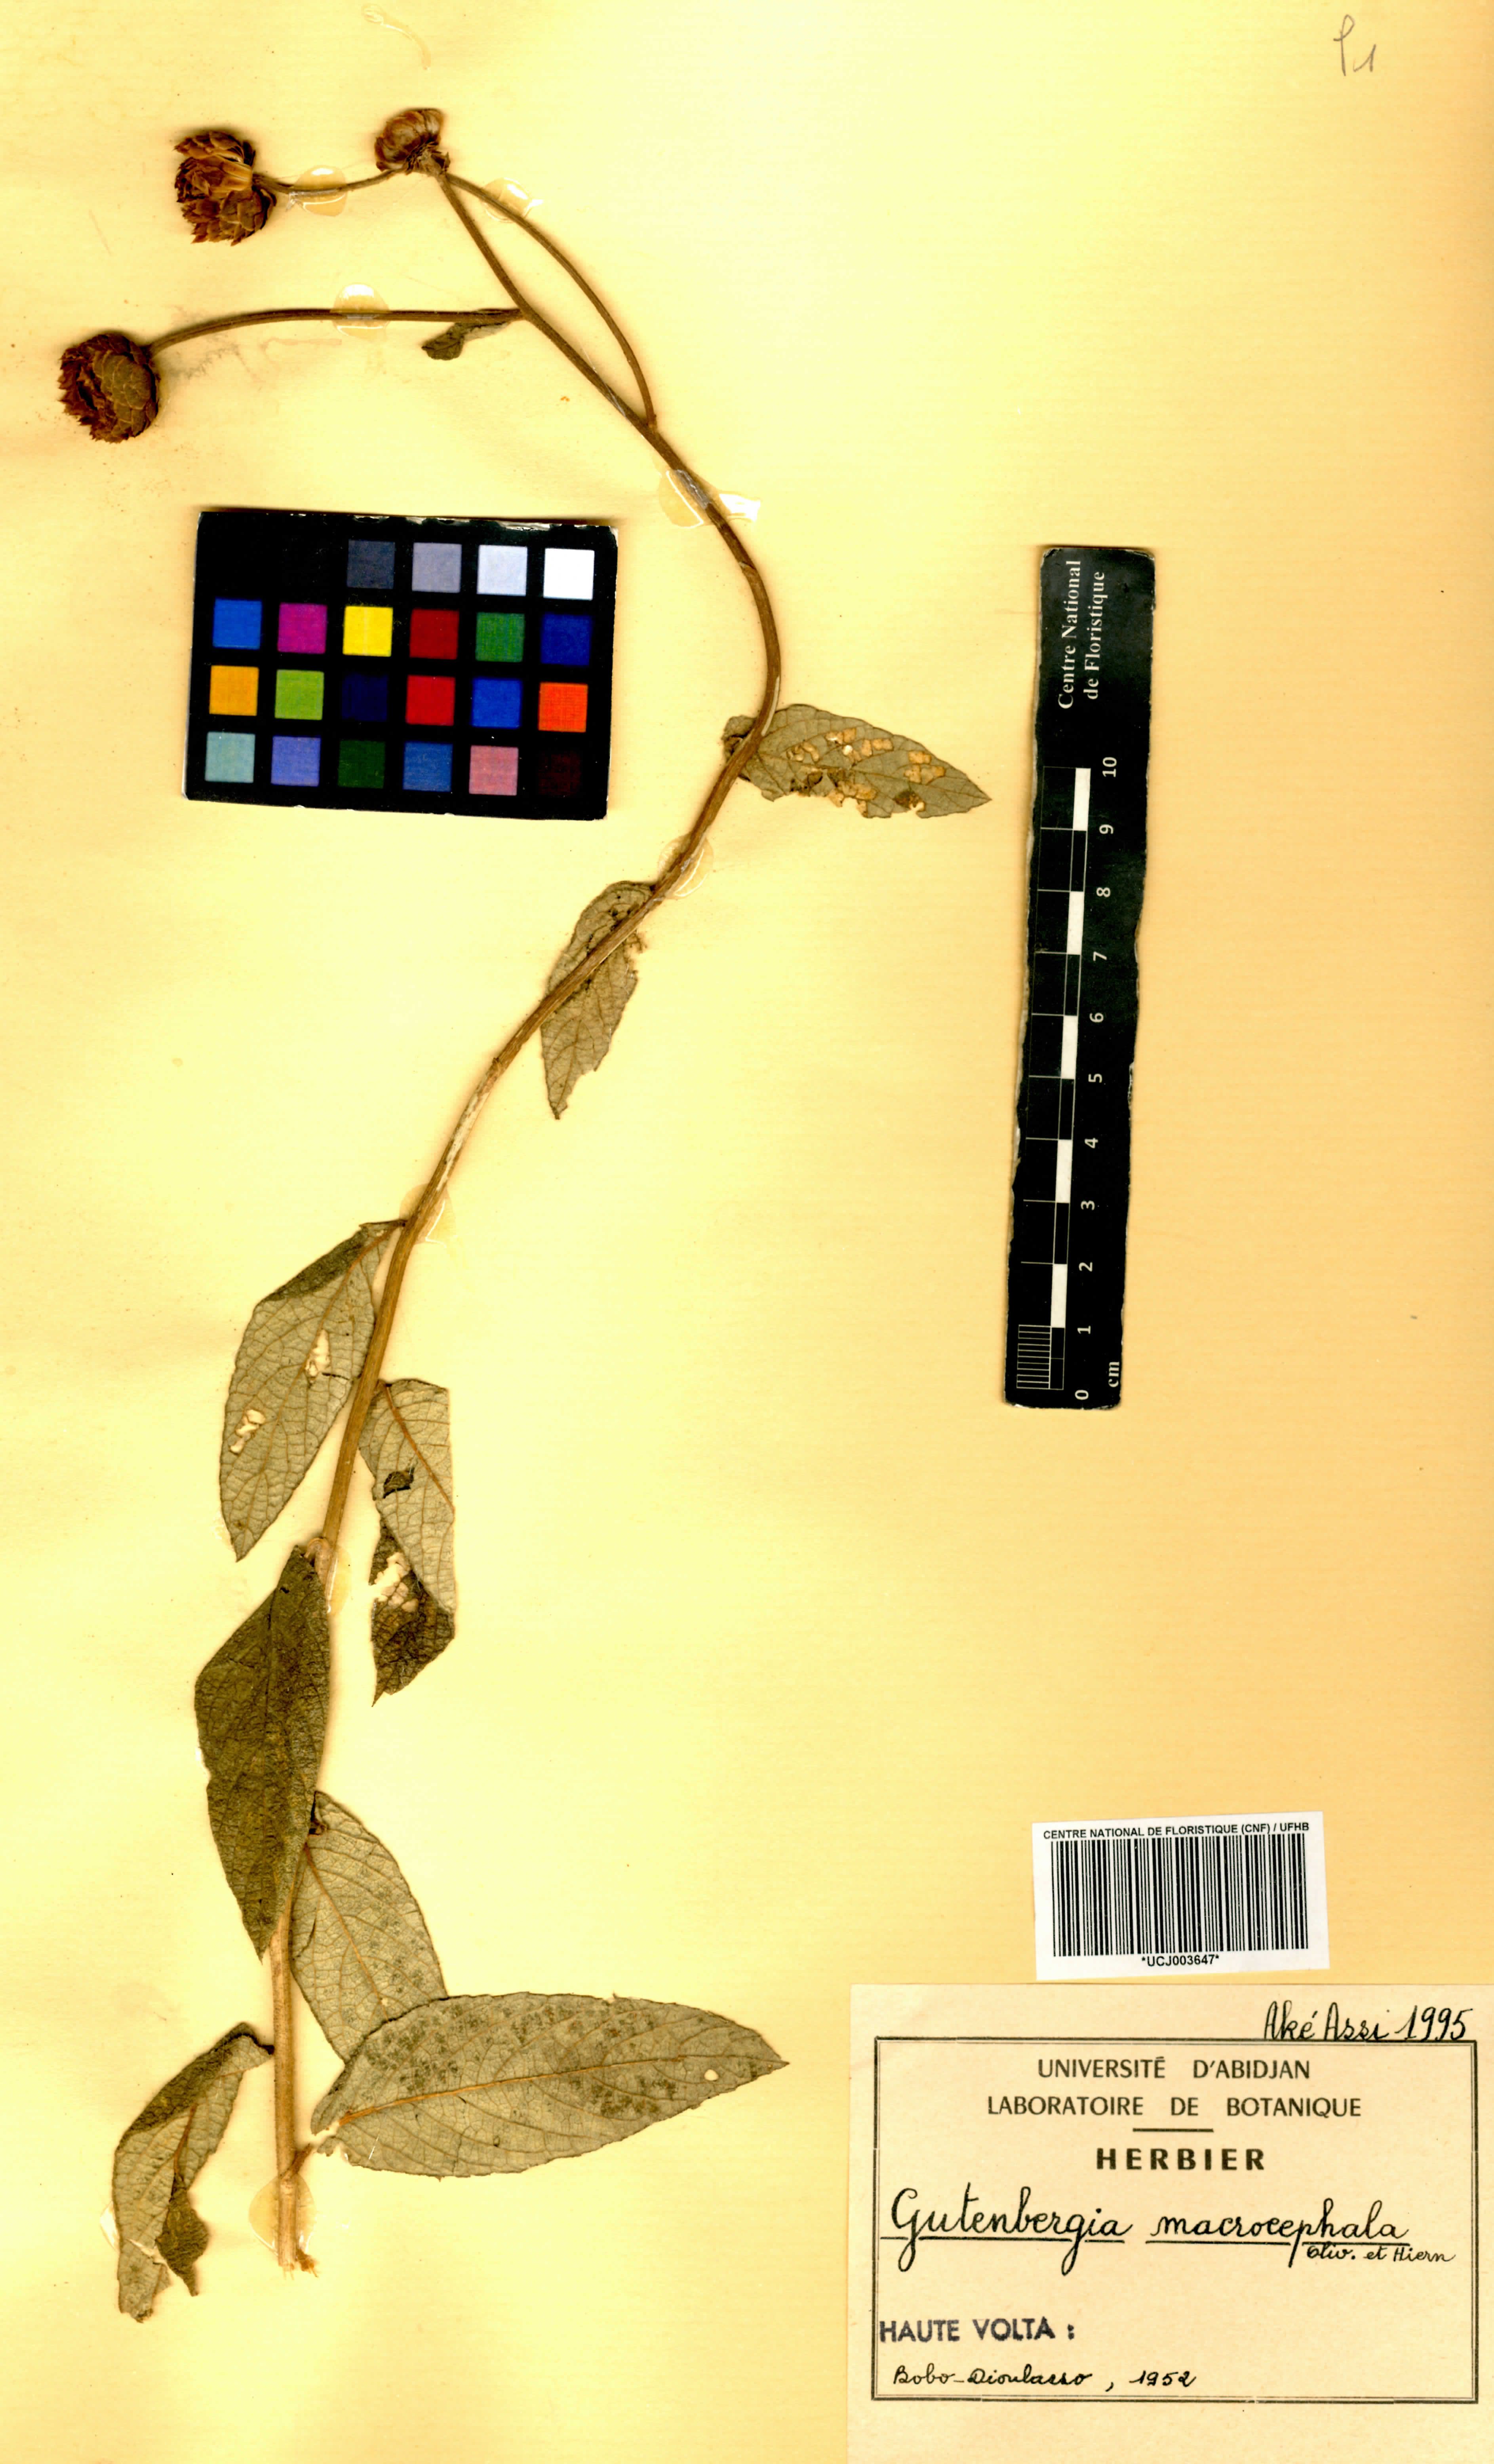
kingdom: Plantae
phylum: Tracheophyta
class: Magnoliopsida
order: Asterales
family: Asteraceae
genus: Kinghamia
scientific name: Kinghamia macrocephala
